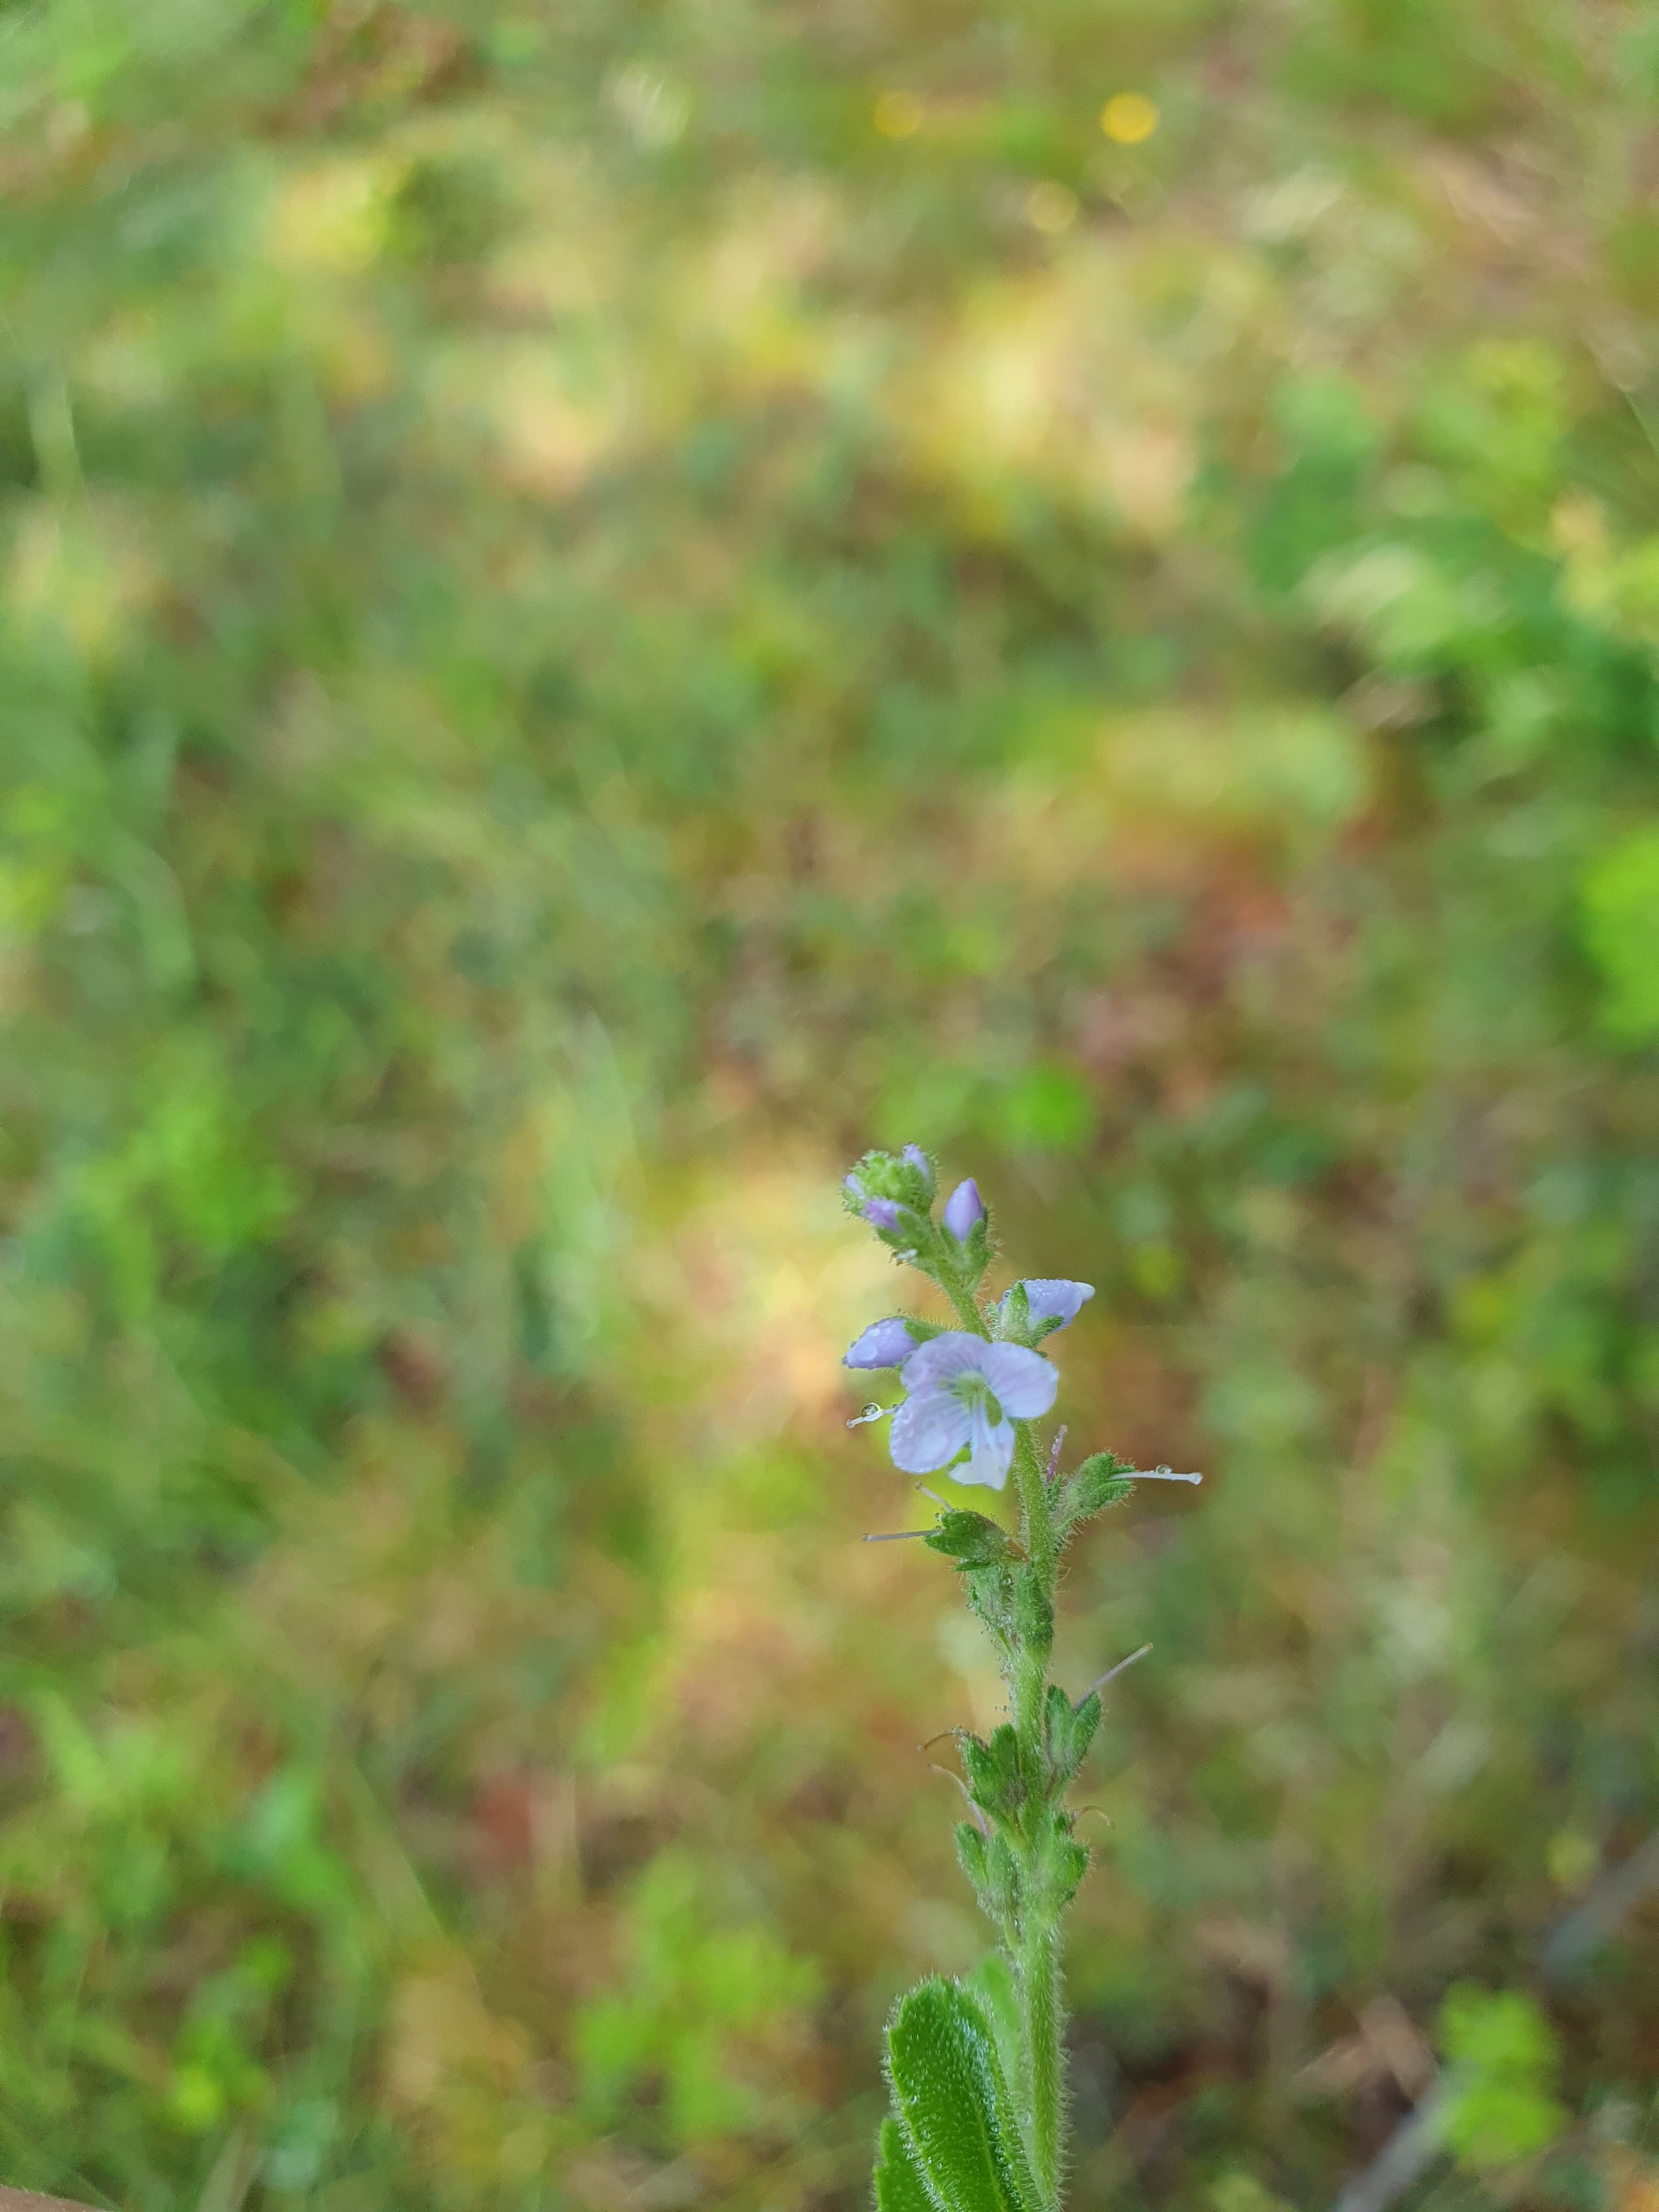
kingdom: Plantae
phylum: Tracheophyta
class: Magnoliopsida
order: Lamiales
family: Plantaginaceae
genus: Veronica
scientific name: Veronica officinalis
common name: Læge-ærenpris
